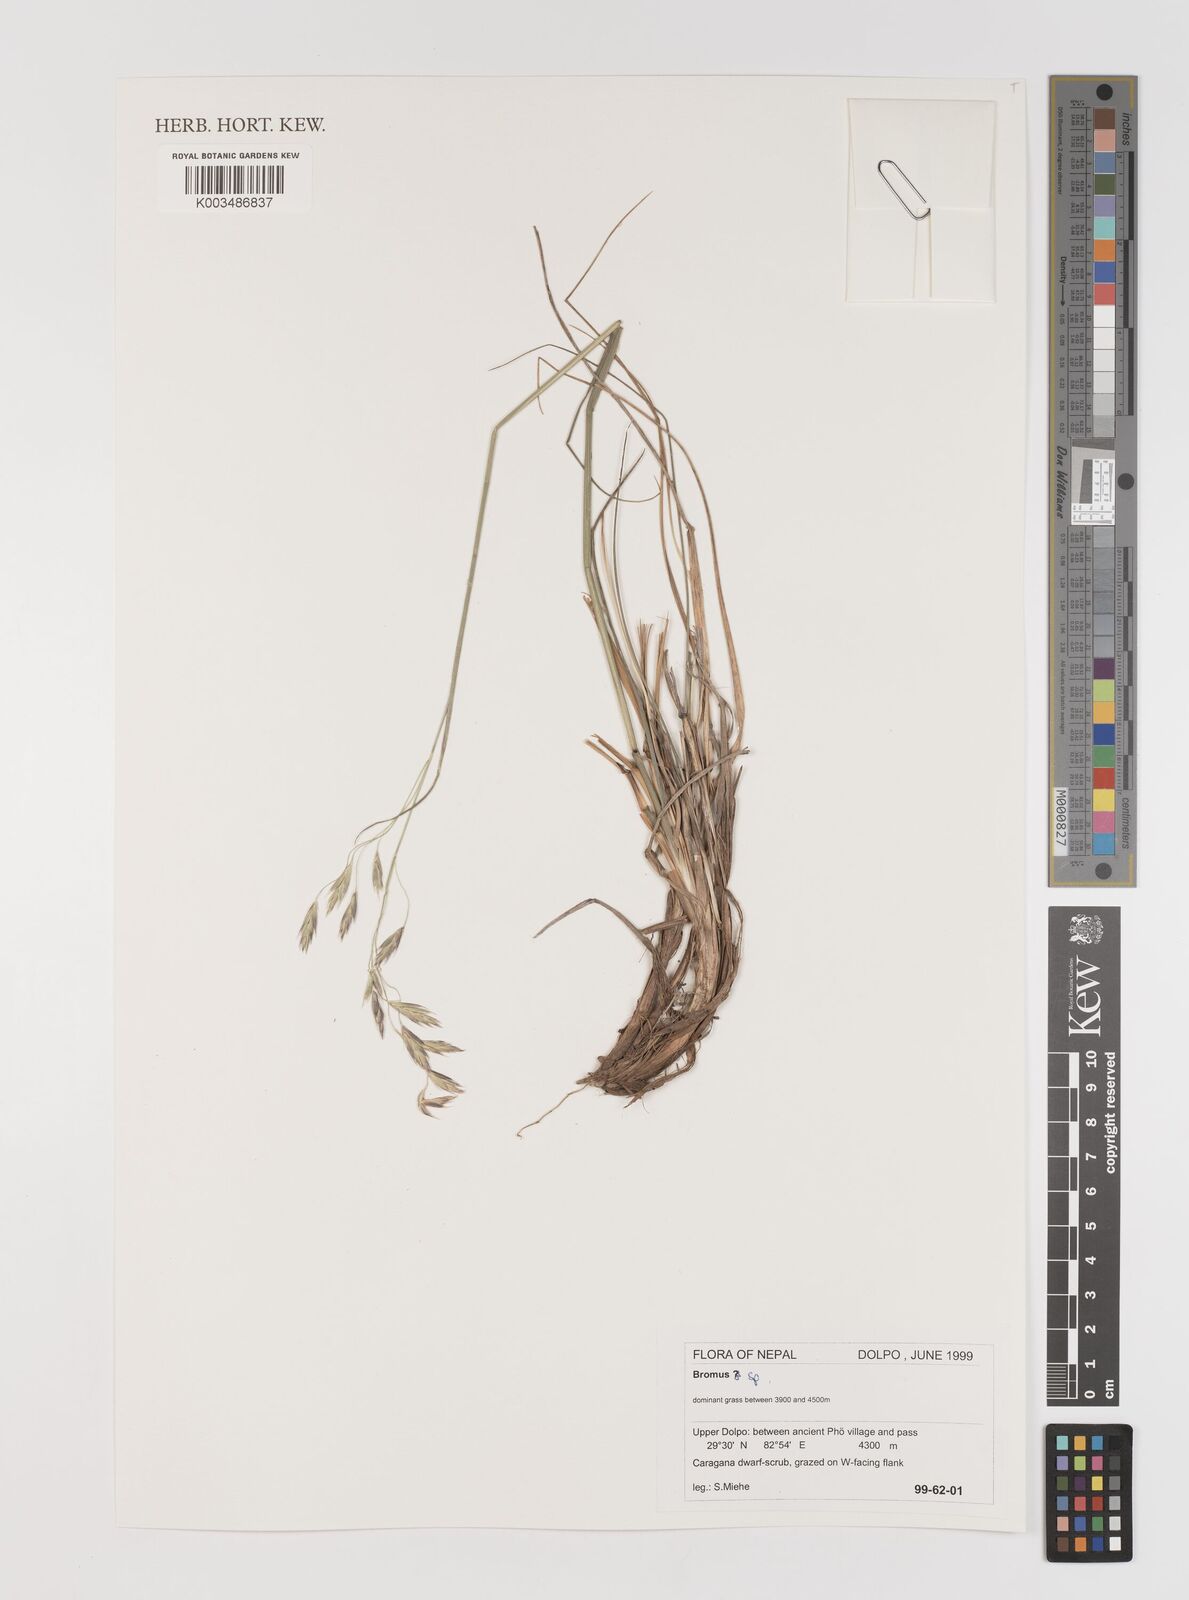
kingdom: Plantae
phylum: Tracheophyta
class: Liliopsida
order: Poales
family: Poaceae
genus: Bromus
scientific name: Bromus
